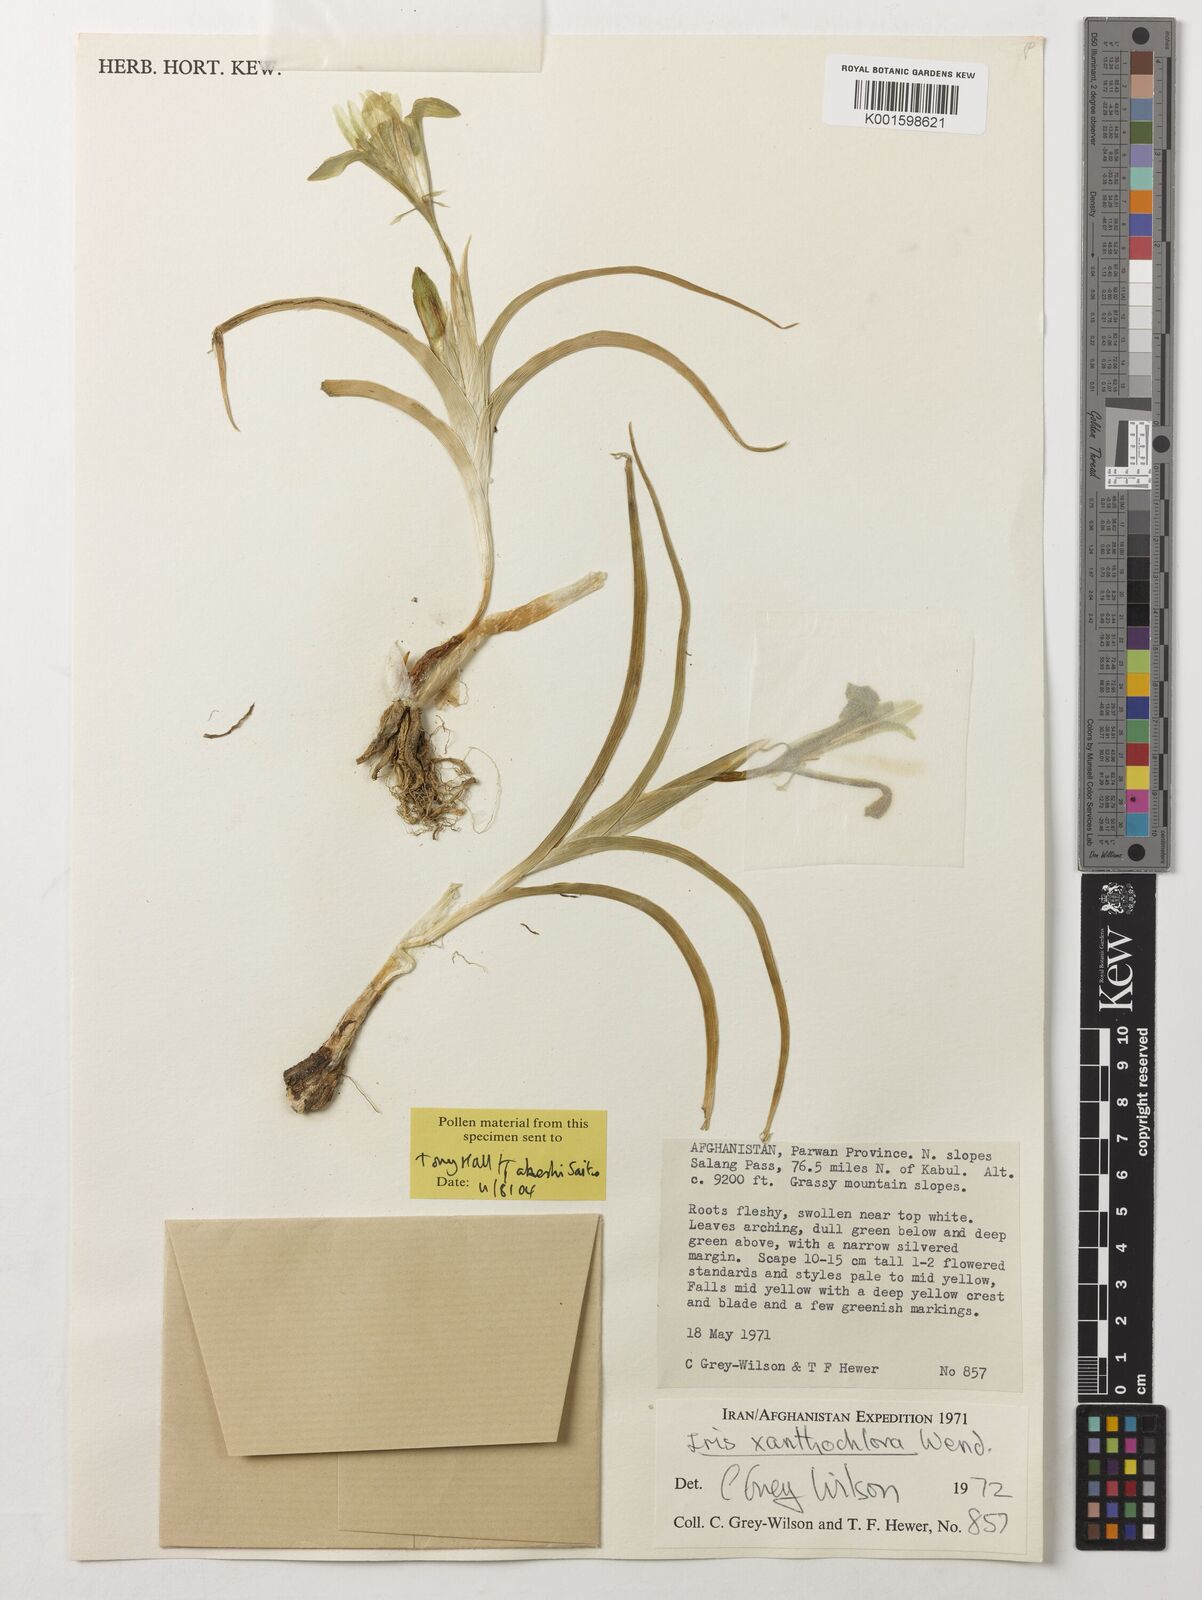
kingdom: Plantae
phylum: Tracheophyta
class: Liliopsida
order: Asparagales
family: Iridaceae
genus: Iris
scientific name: Iris xanthochlora
